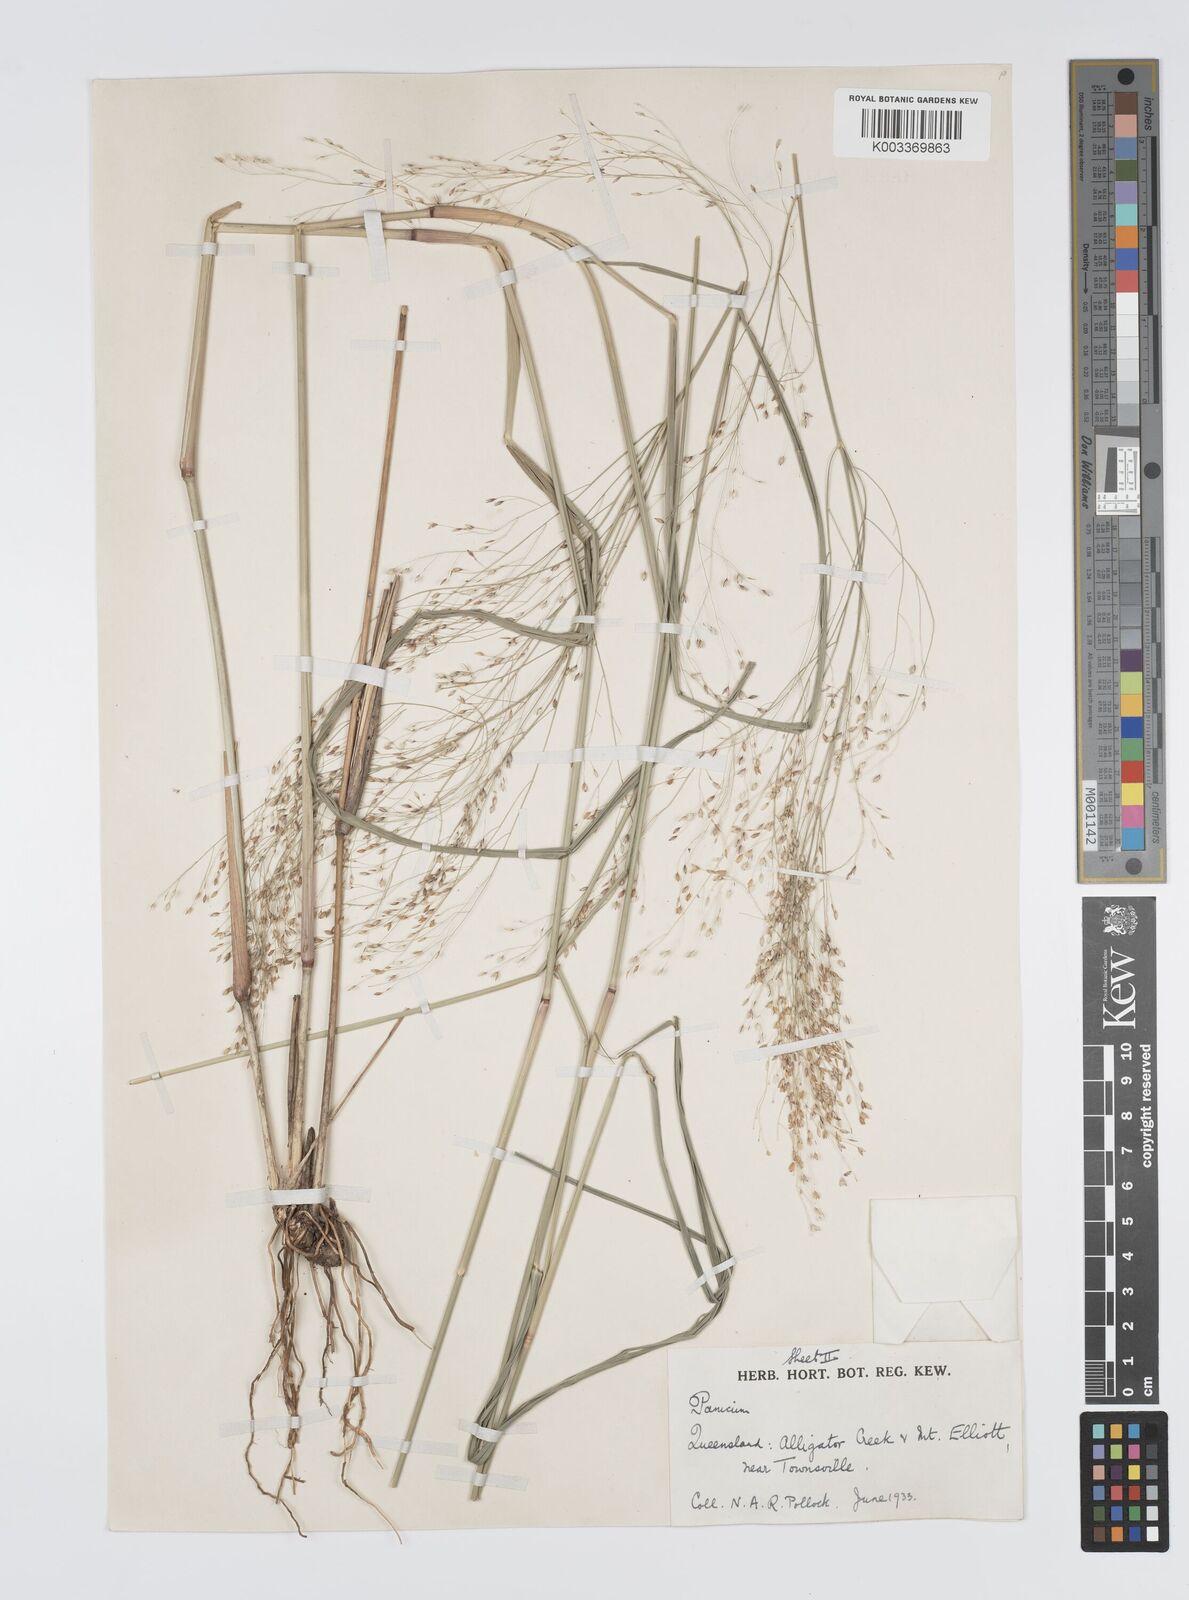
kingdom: Plantae
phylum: Tracheophyta
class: Liliopsida
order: Poales
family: Poaceae
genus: Panicum
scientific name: Panicum mitchellii
